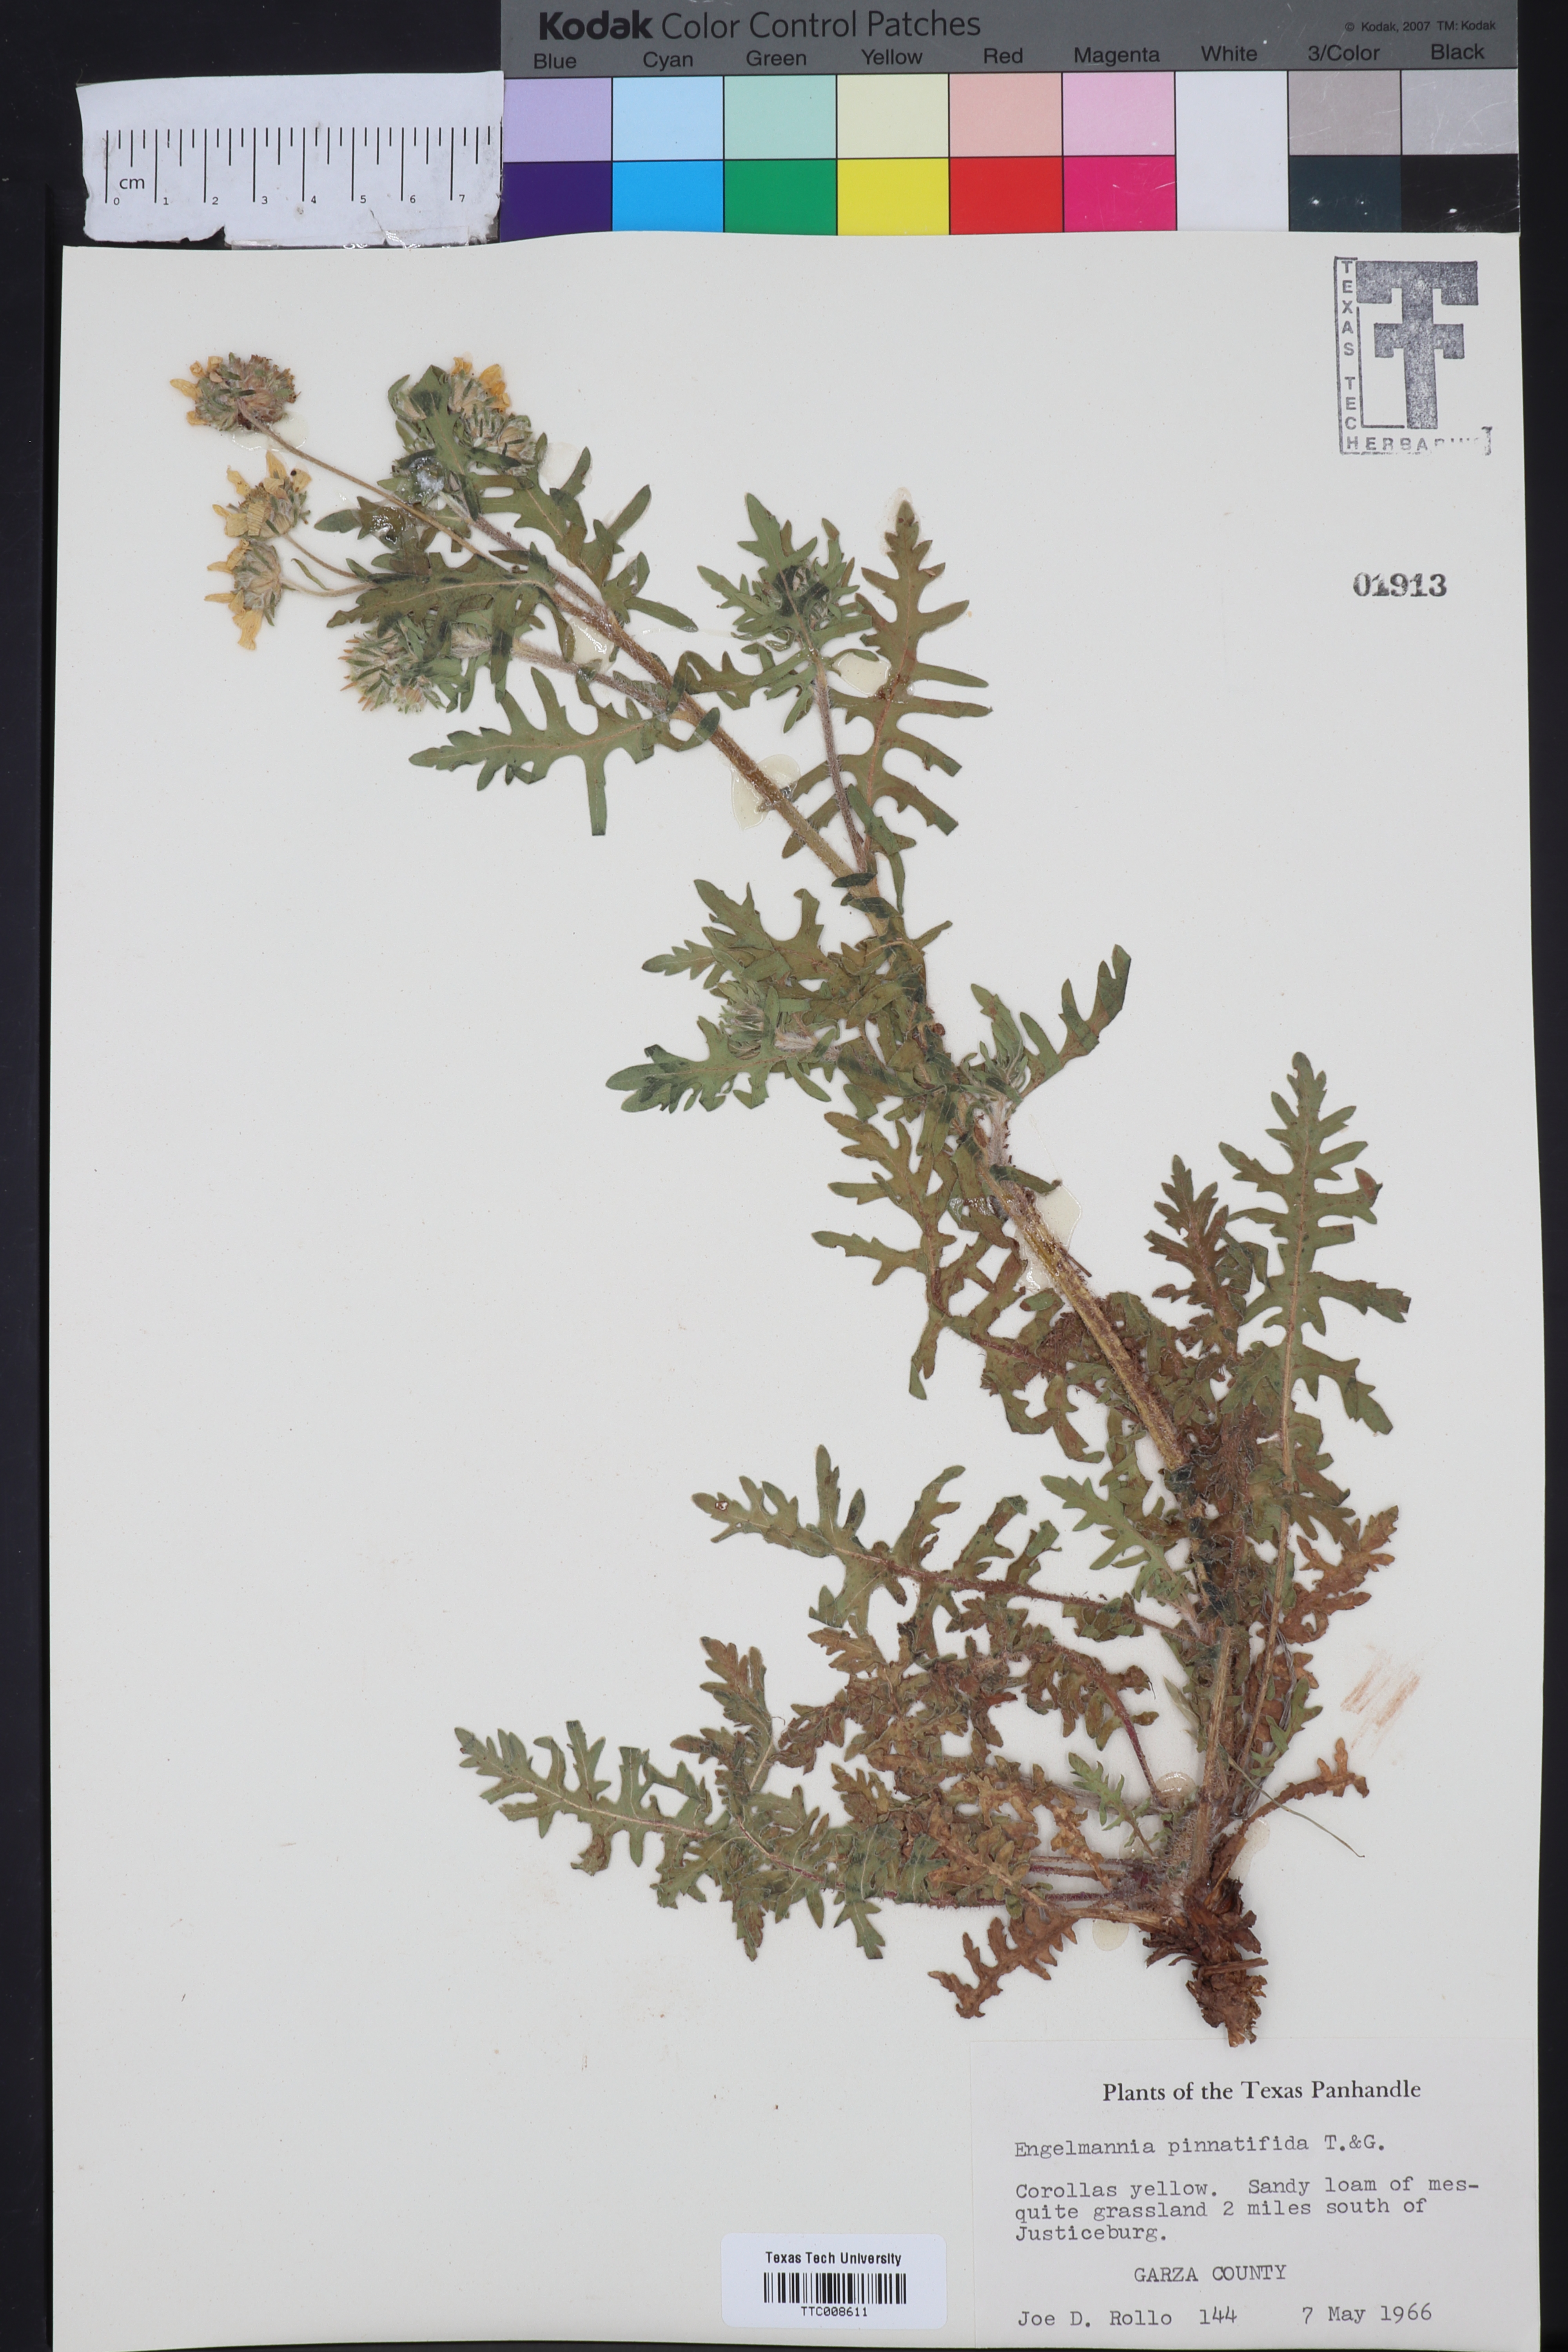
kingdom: Plantae
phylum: Tracheophyta
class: Magnoliopsida
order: Asterales
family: Asteraceae
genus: Engelmannia
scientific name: Engelmannia peristenia
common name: Engelmann's daisy
